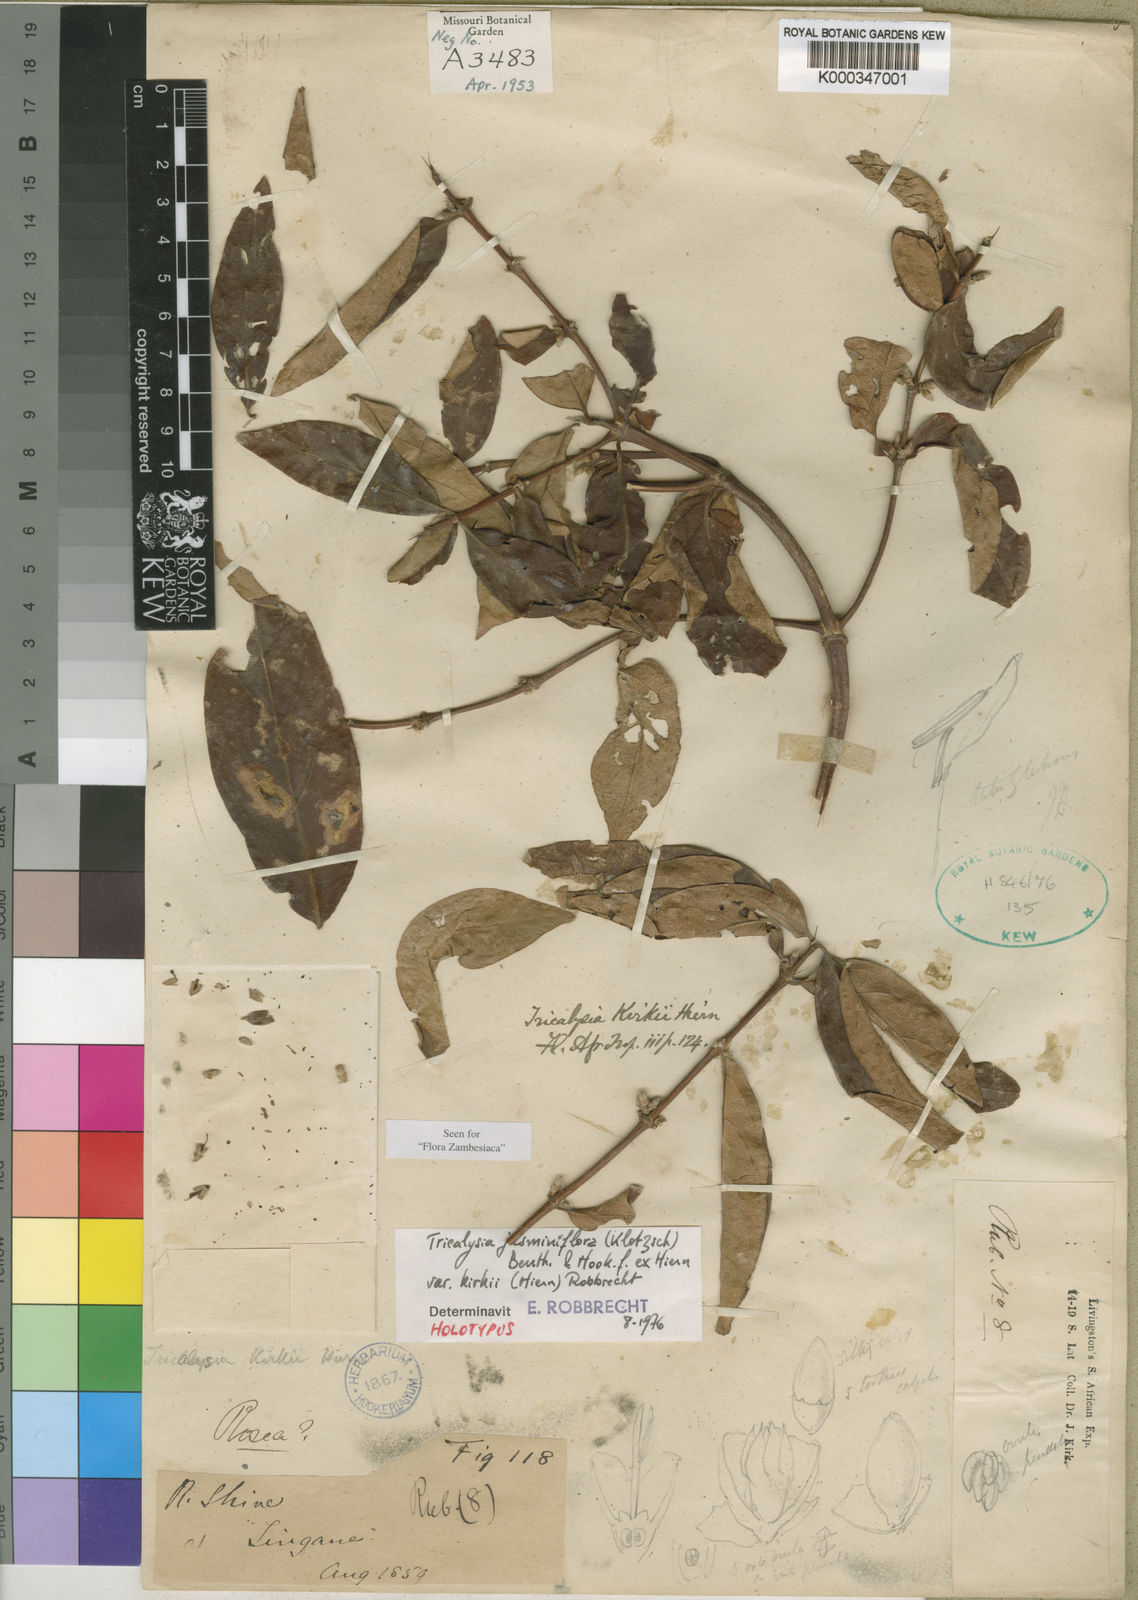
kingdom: Plantae
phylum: Tracheophyta
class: Magnoliopsida
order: Gentianales
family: Rubiaceae
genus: Tricalysia
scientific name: Tricalysia jasminiflora
